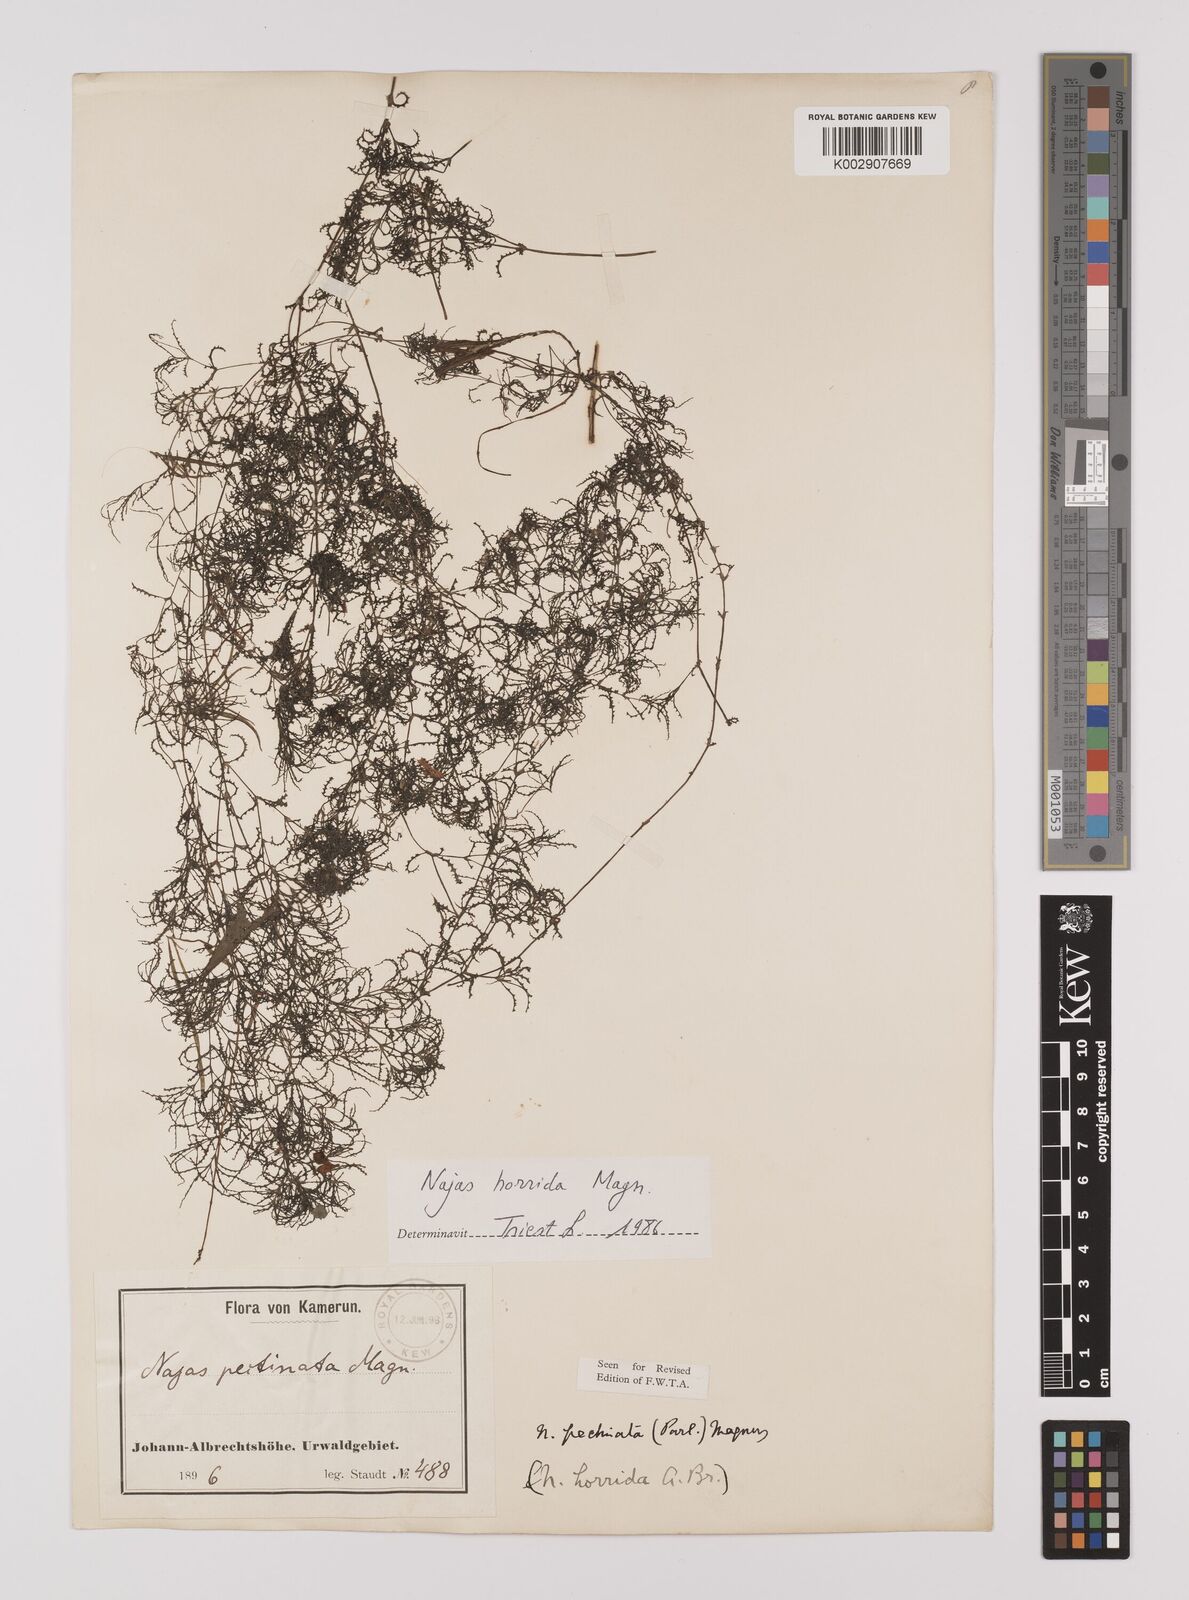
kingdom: Plantae
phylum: Tracheophyta
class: Liliopsida
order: Alismatales
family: Hydrocharitaceae
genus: Najas
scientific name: Najas pectinata
